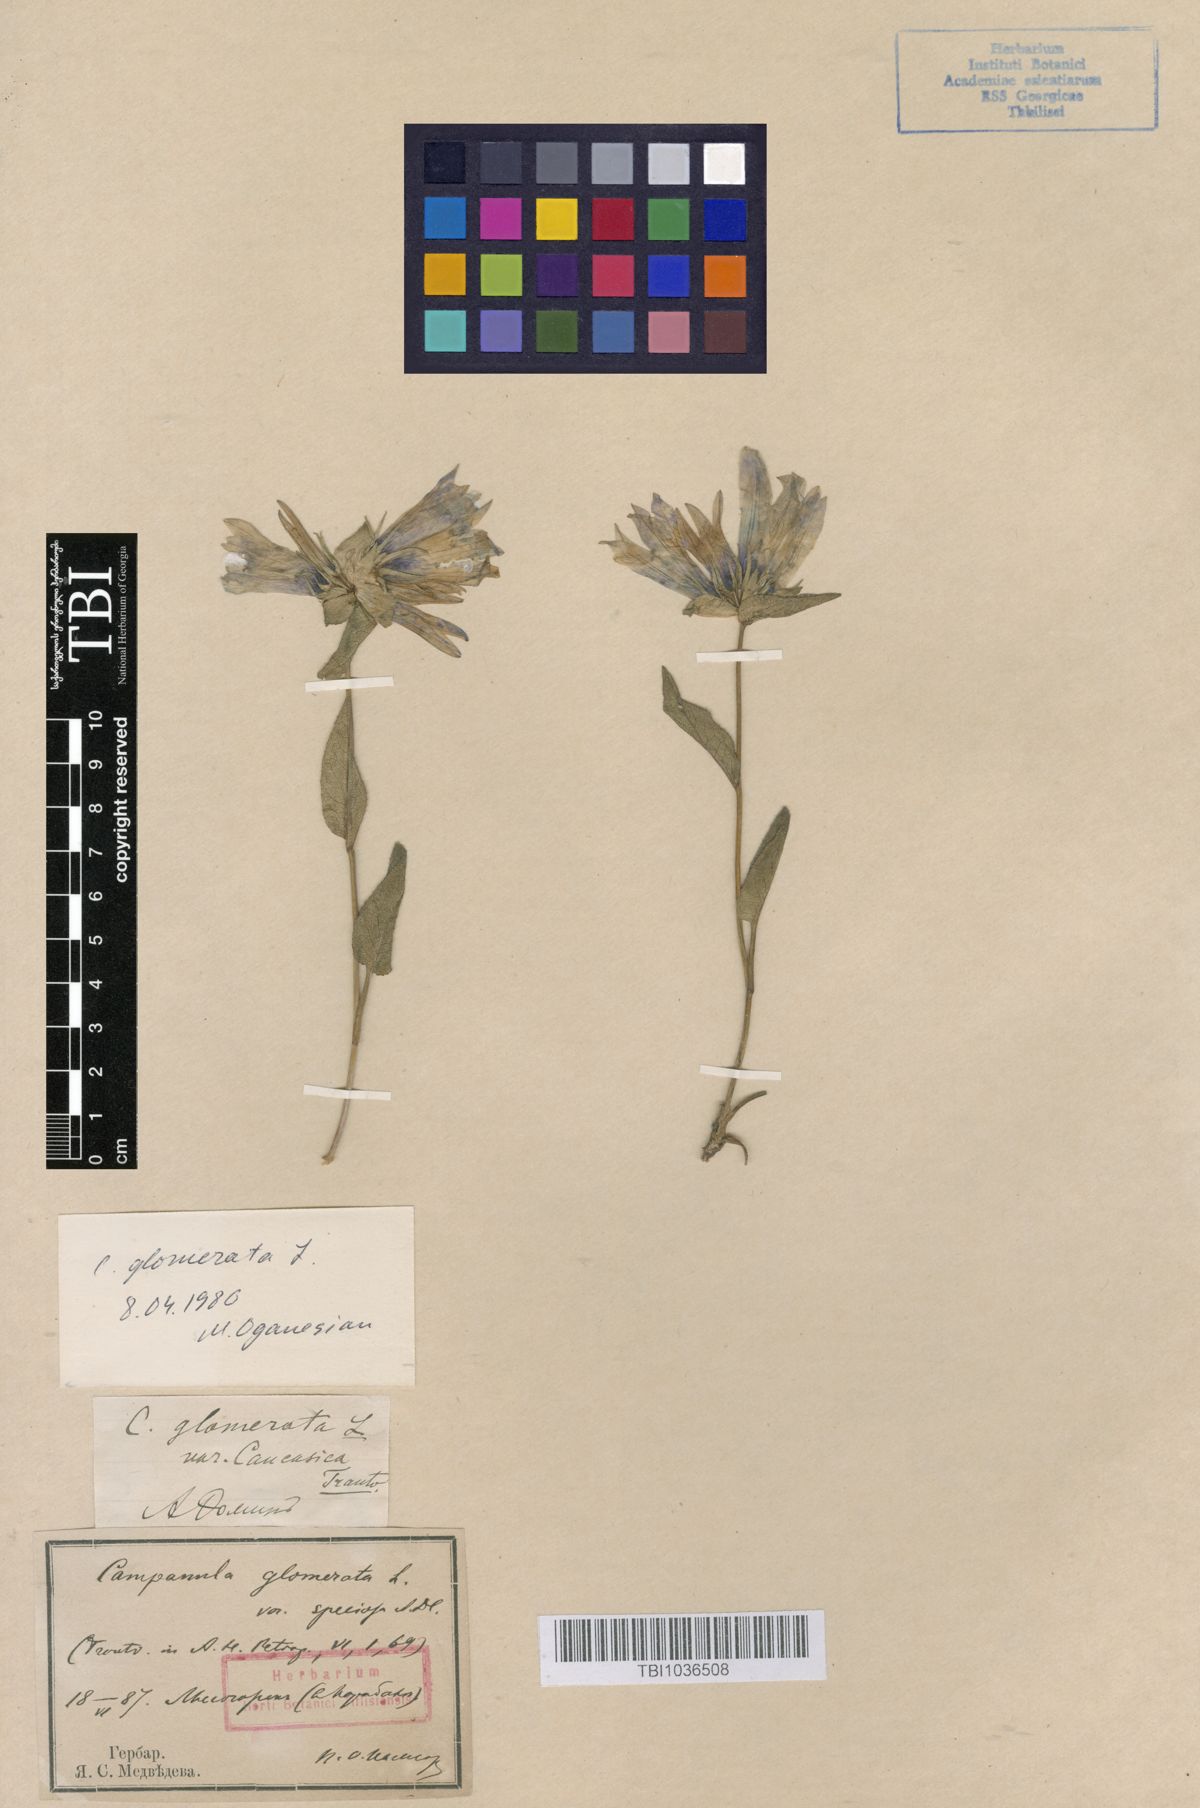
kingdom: Plantae
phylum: Tracheophyta
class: Magnoliopsida
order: Asterales
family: Campanulaceae
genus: Campanula
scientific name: Campanula glomerata
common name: Clustered bellflower
